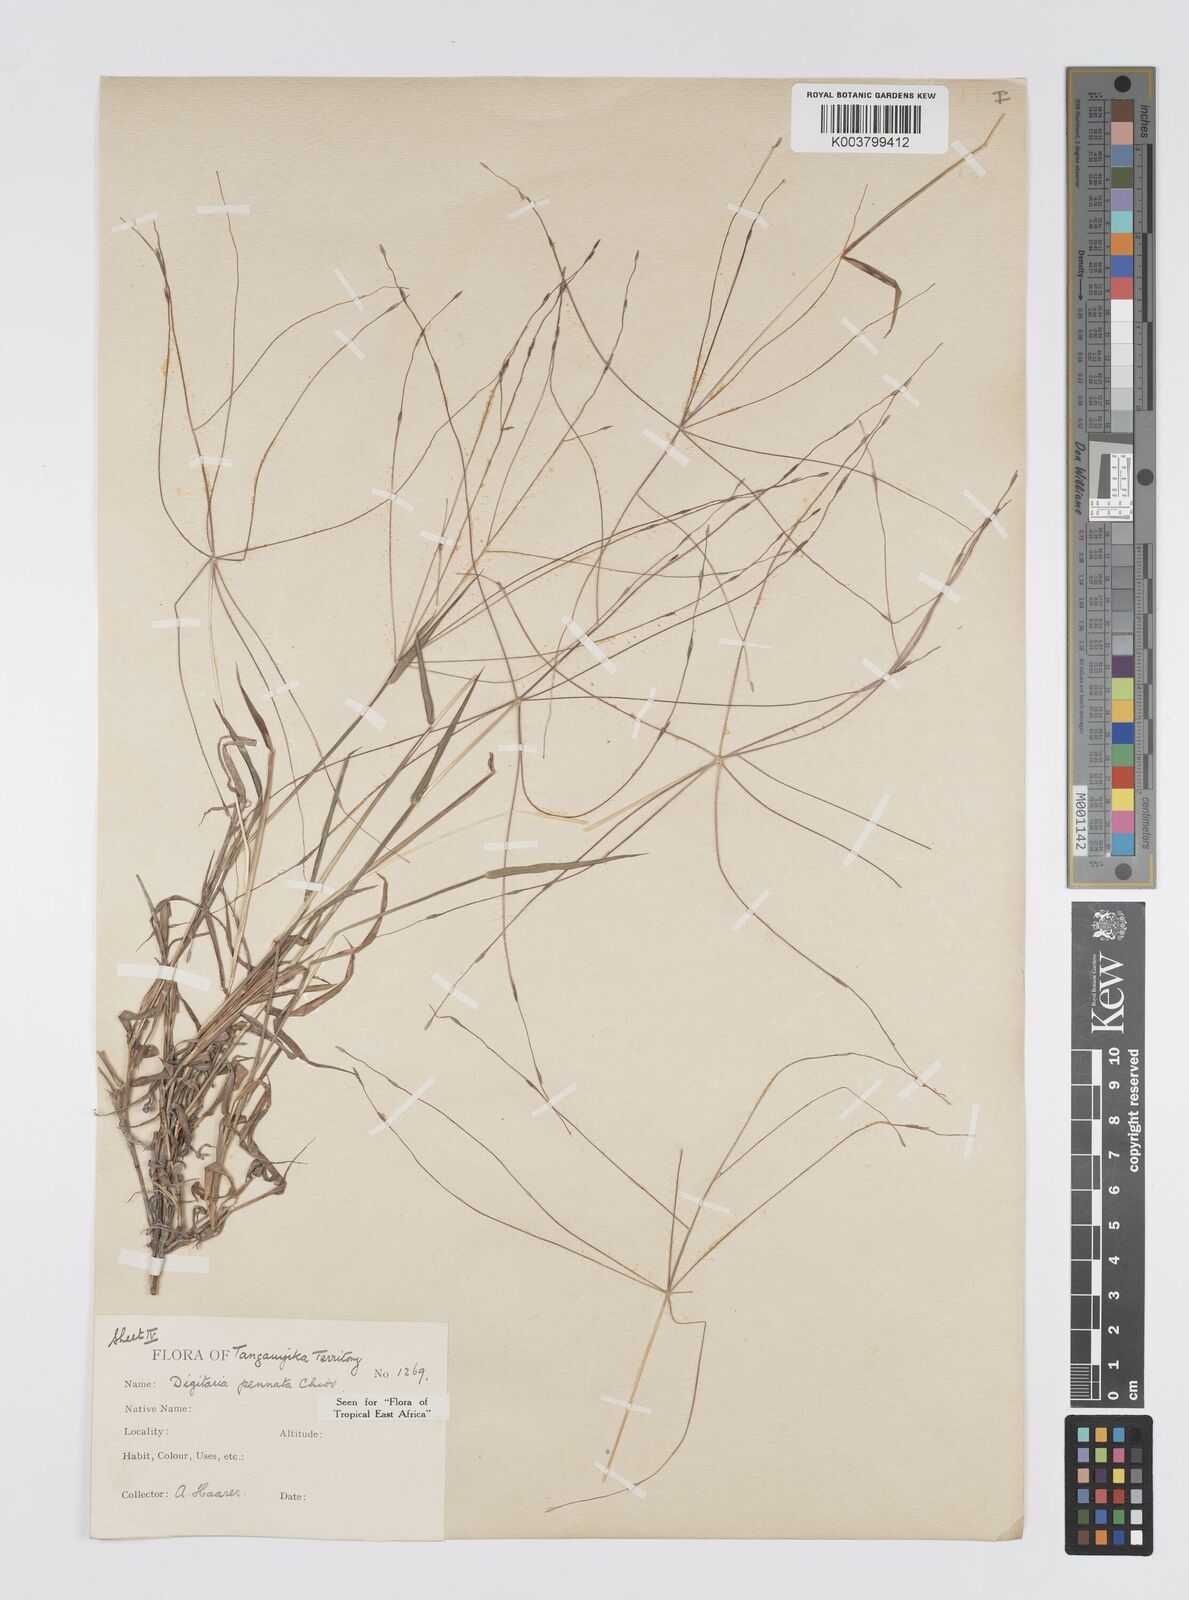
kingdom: Plantae
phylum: Tracheophyta
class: Liliopsida
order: Poales
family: Poaceae
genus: Digitaria
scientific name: Digitaria pennata
